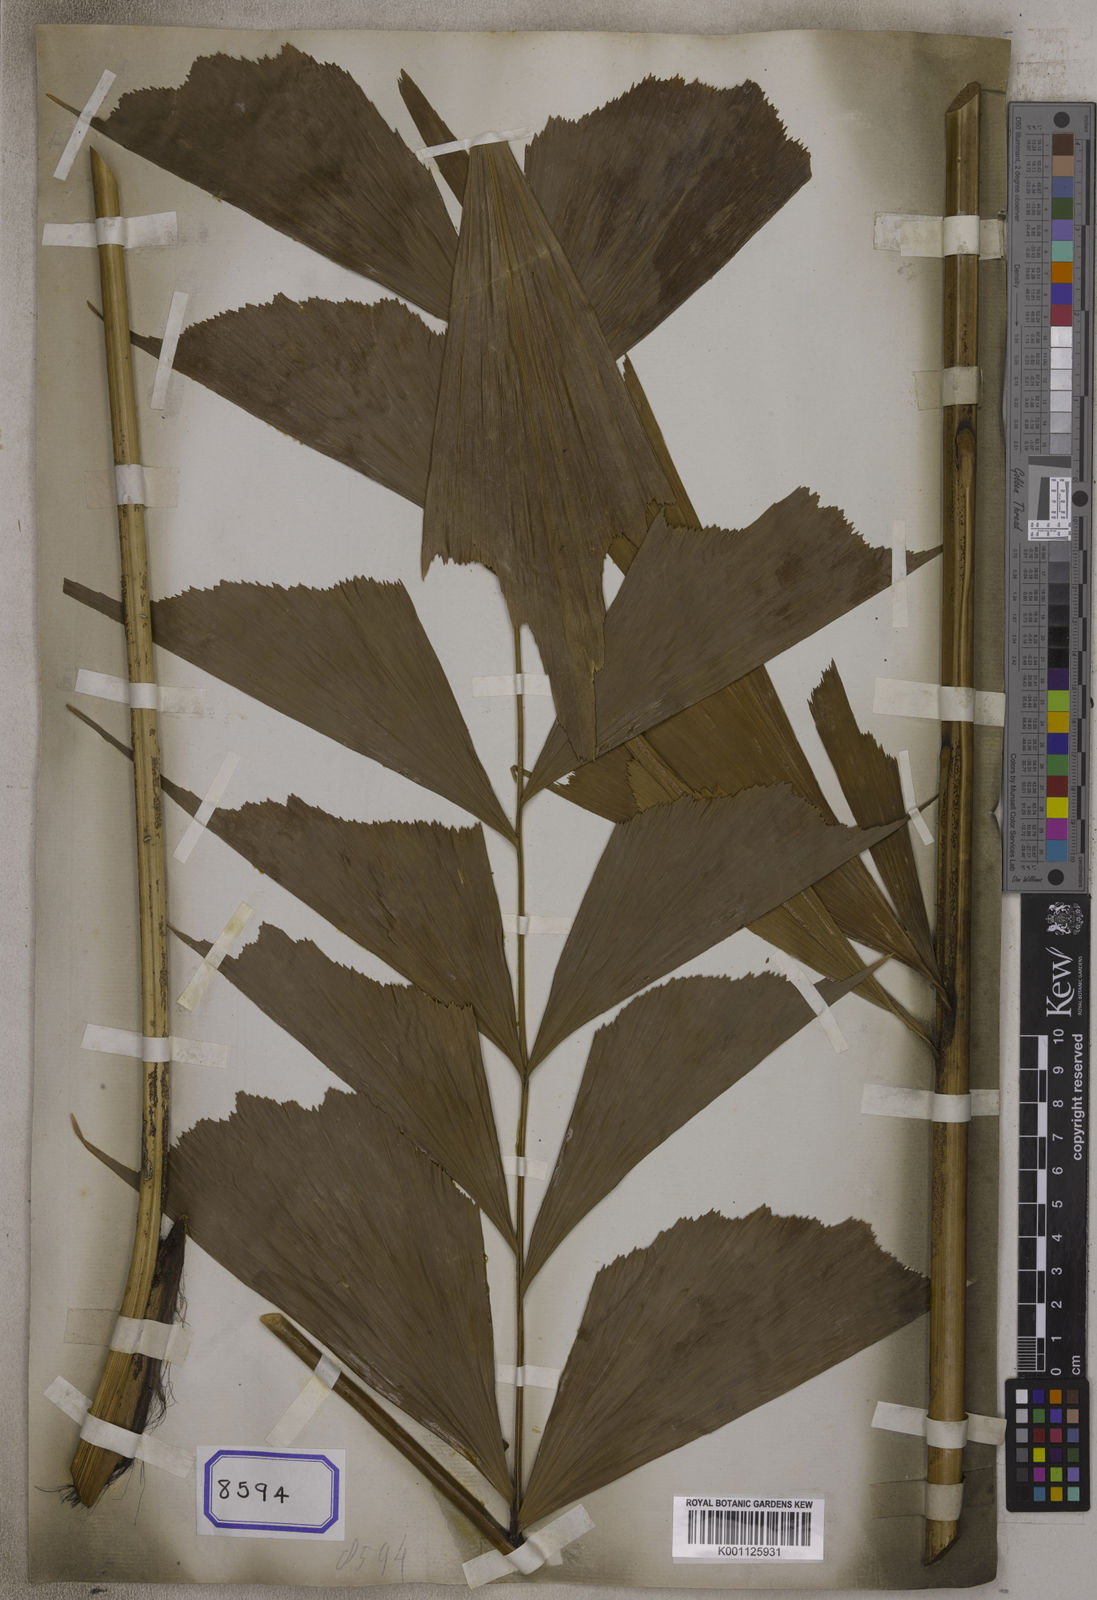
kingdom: Plantae
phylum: Tracheophyta
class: Liliopsida
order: Arecales
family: Arecaceae
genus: Caryota
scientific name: Caryota
